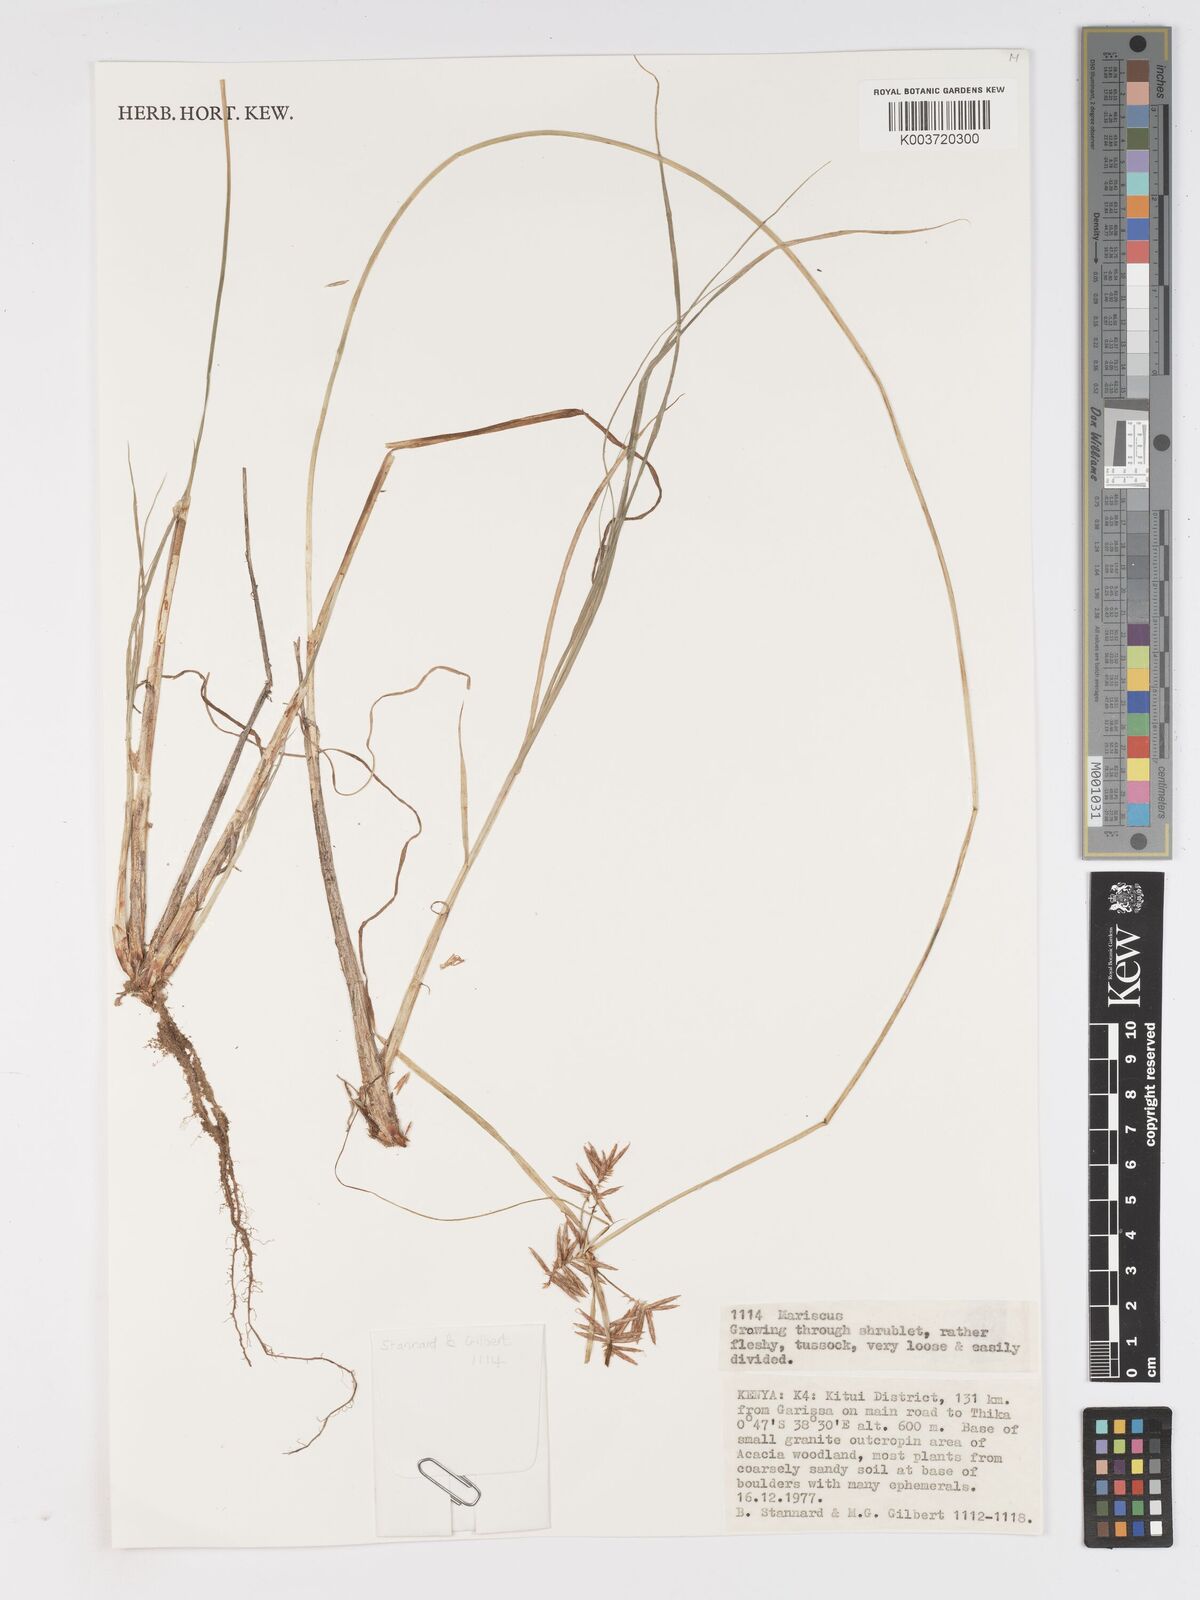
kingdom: Plantae
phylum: Tracheophyta
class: Liliopsida
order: Poales
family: Cyperaceae
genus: Cyperus
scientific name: Cyperus
